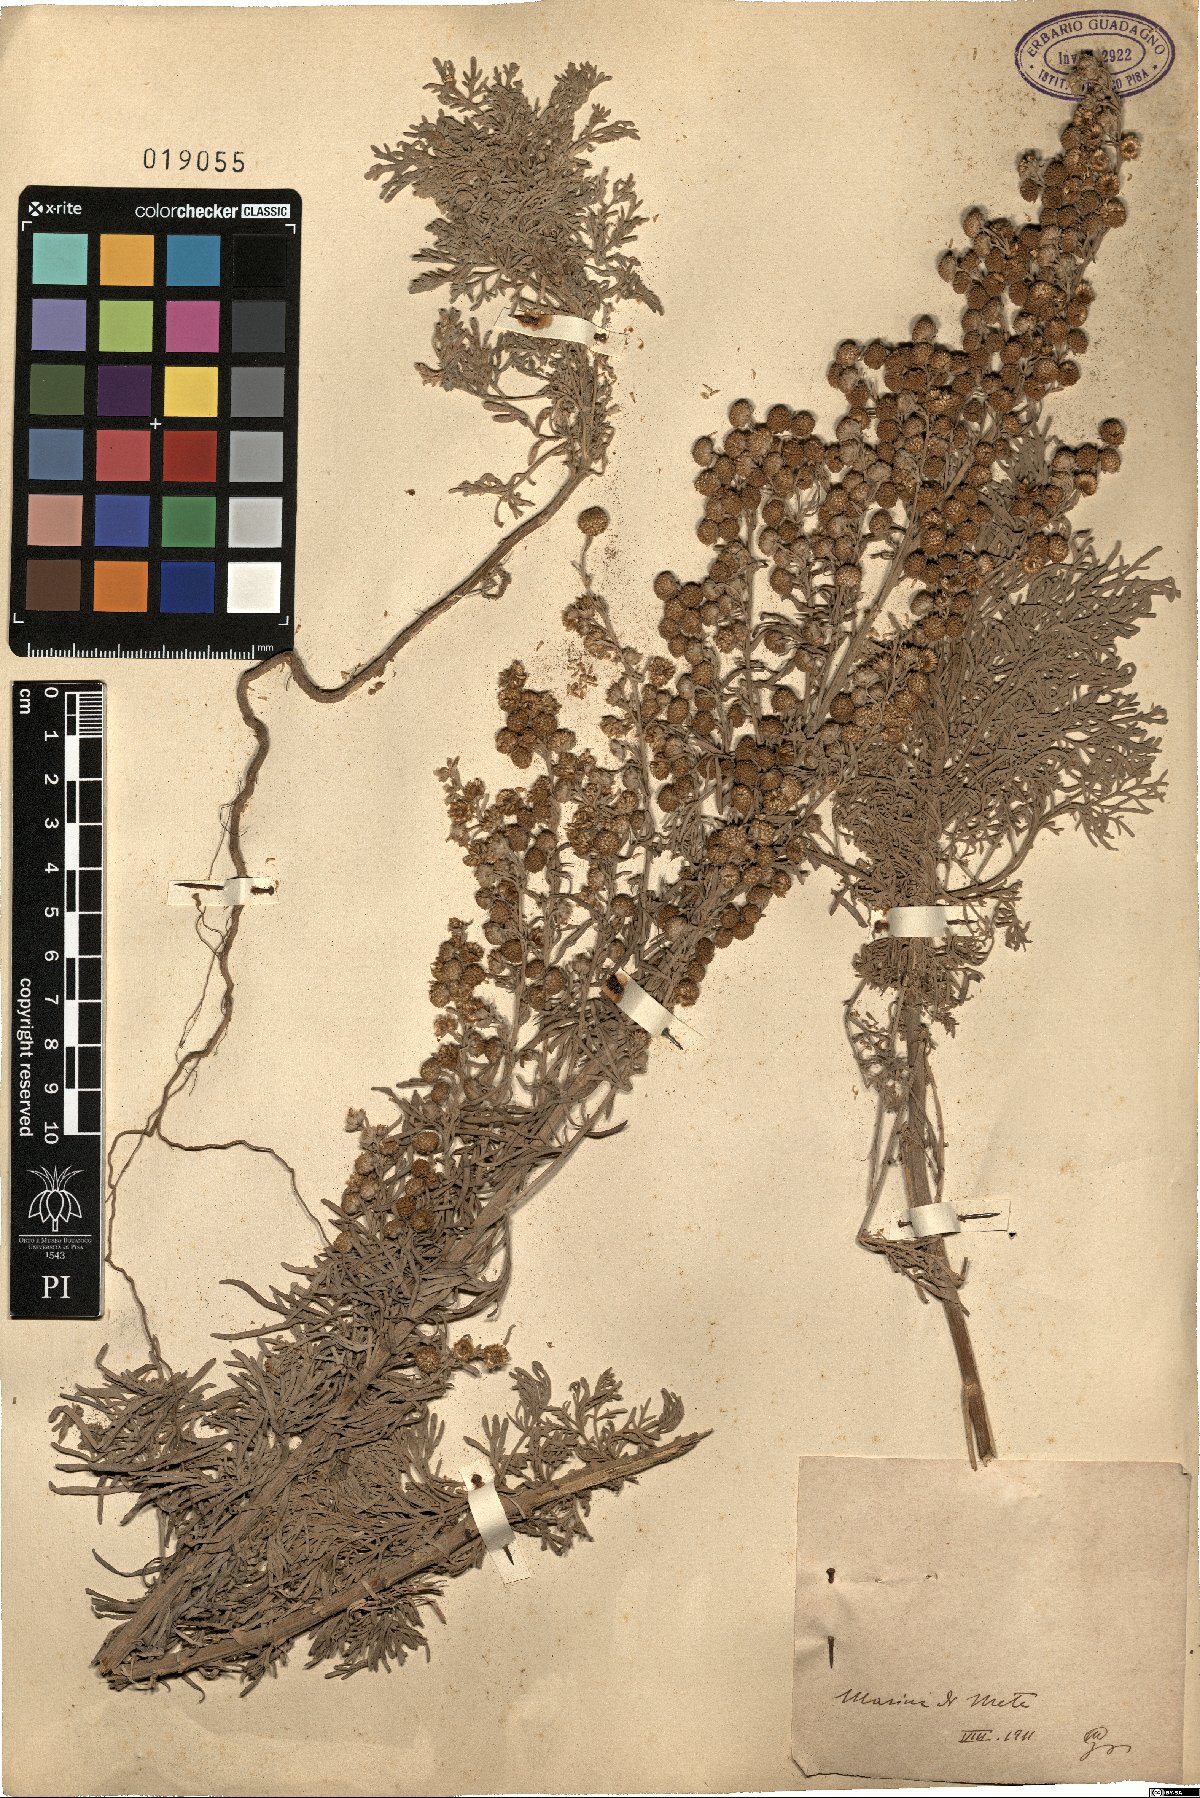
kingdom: Plantae
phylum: Tracheophyta
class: Magnoliopsida
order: Asterales
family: Asteraceae
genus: Artemisia
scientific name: Artemisia
